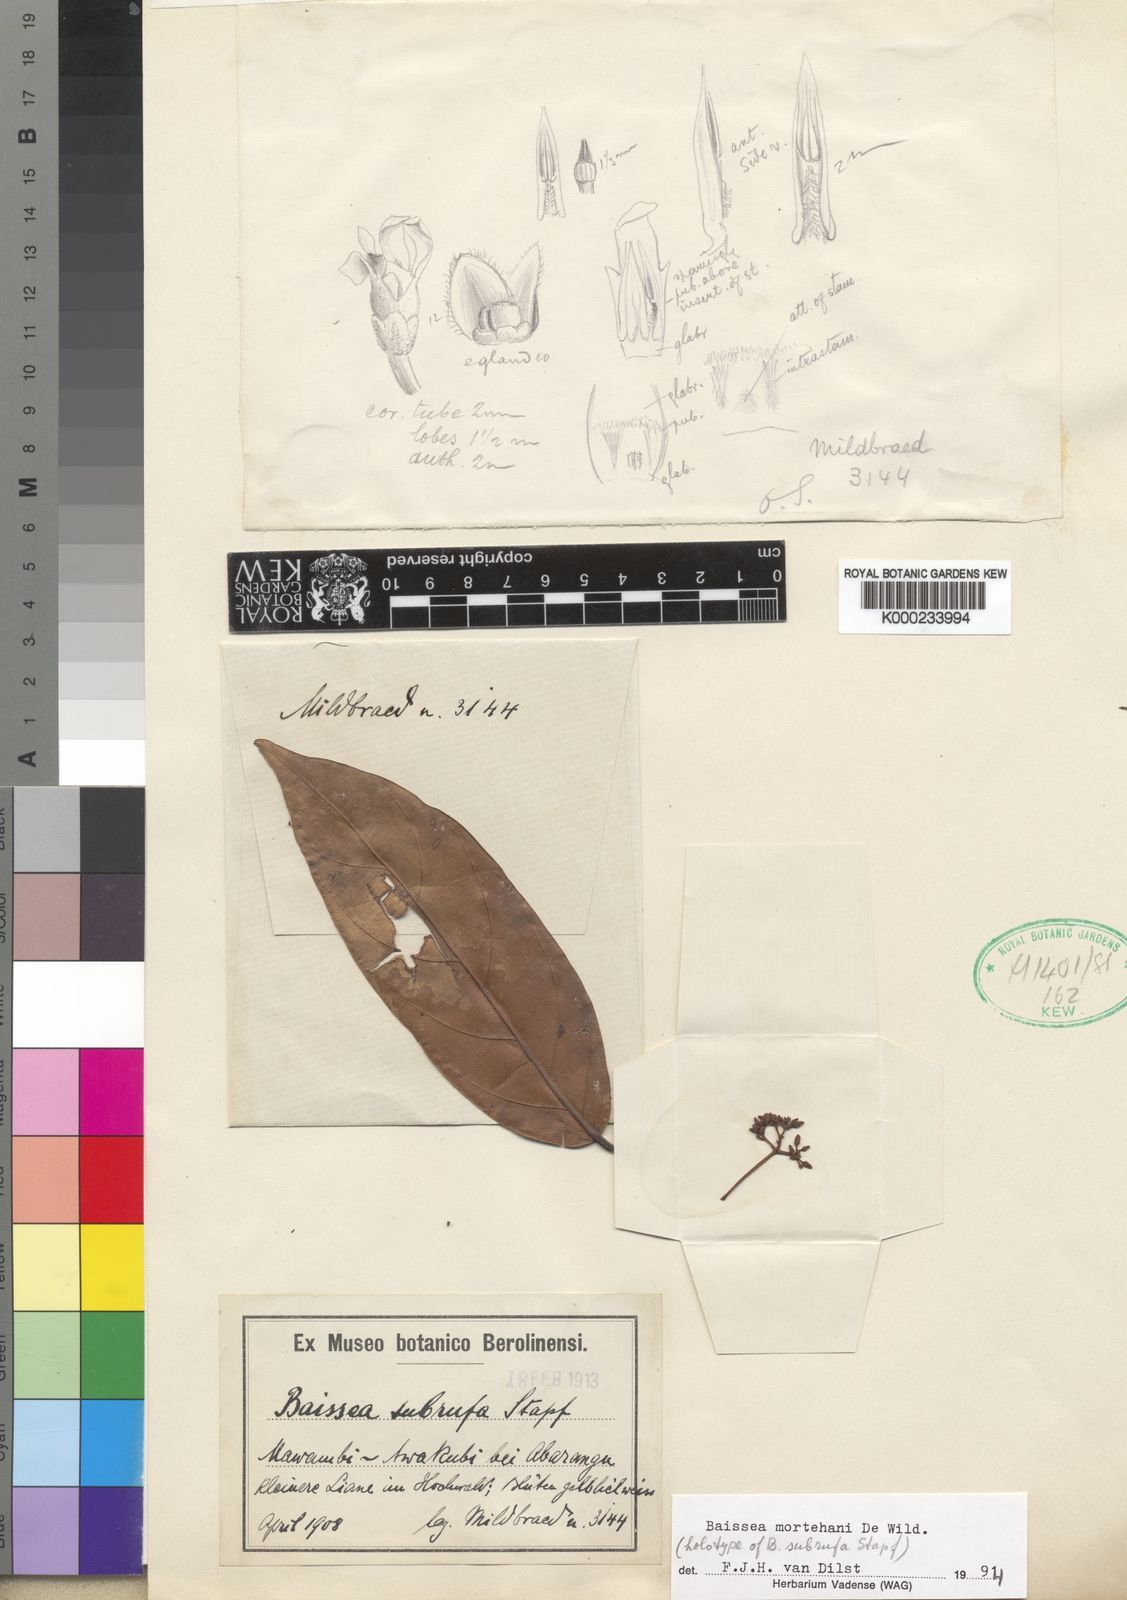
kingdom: Plantae
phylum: Tracheophyta
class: Magnoliopsida
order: Gentianales
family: Apocynaceae
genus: Baissea
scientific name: Baissea subrufa
